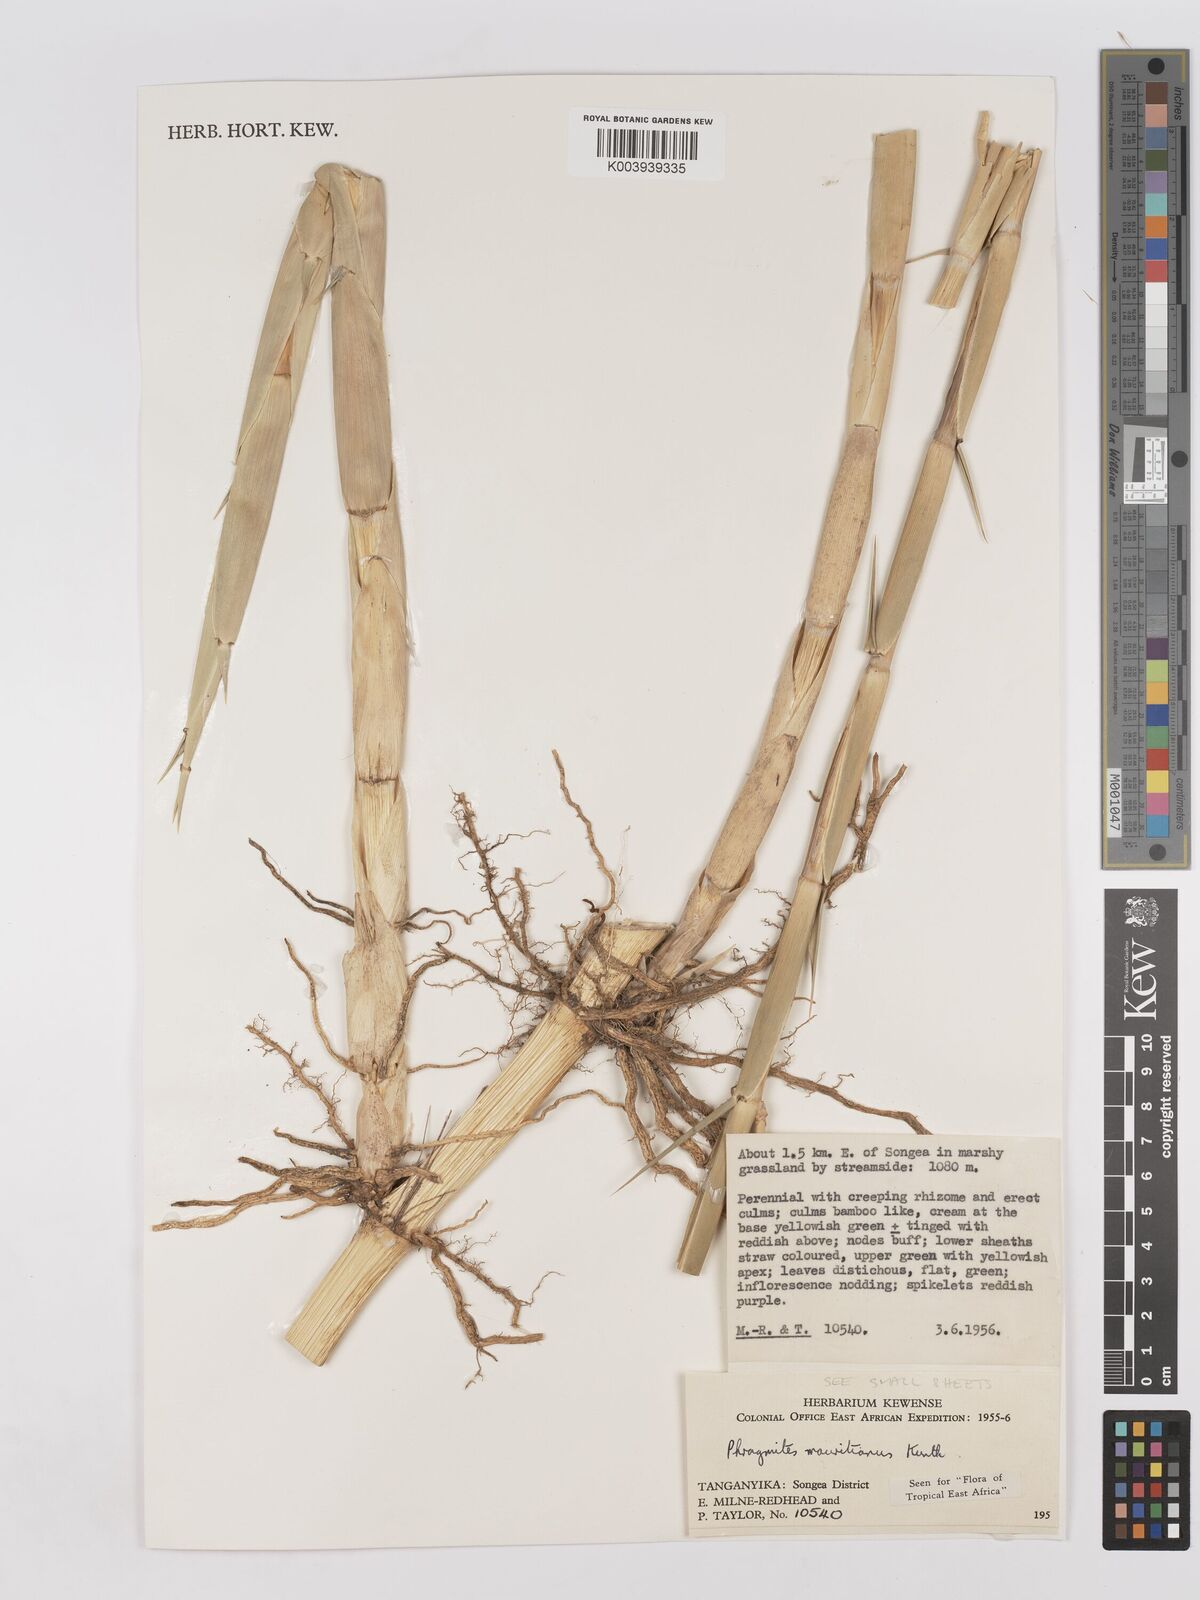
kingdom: Plantae
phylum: Tracheophyta
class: Liliopsida
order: Poales
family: Poaceae
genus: Phragmites
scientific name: Phragmites mauritianus
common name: Reed grass
